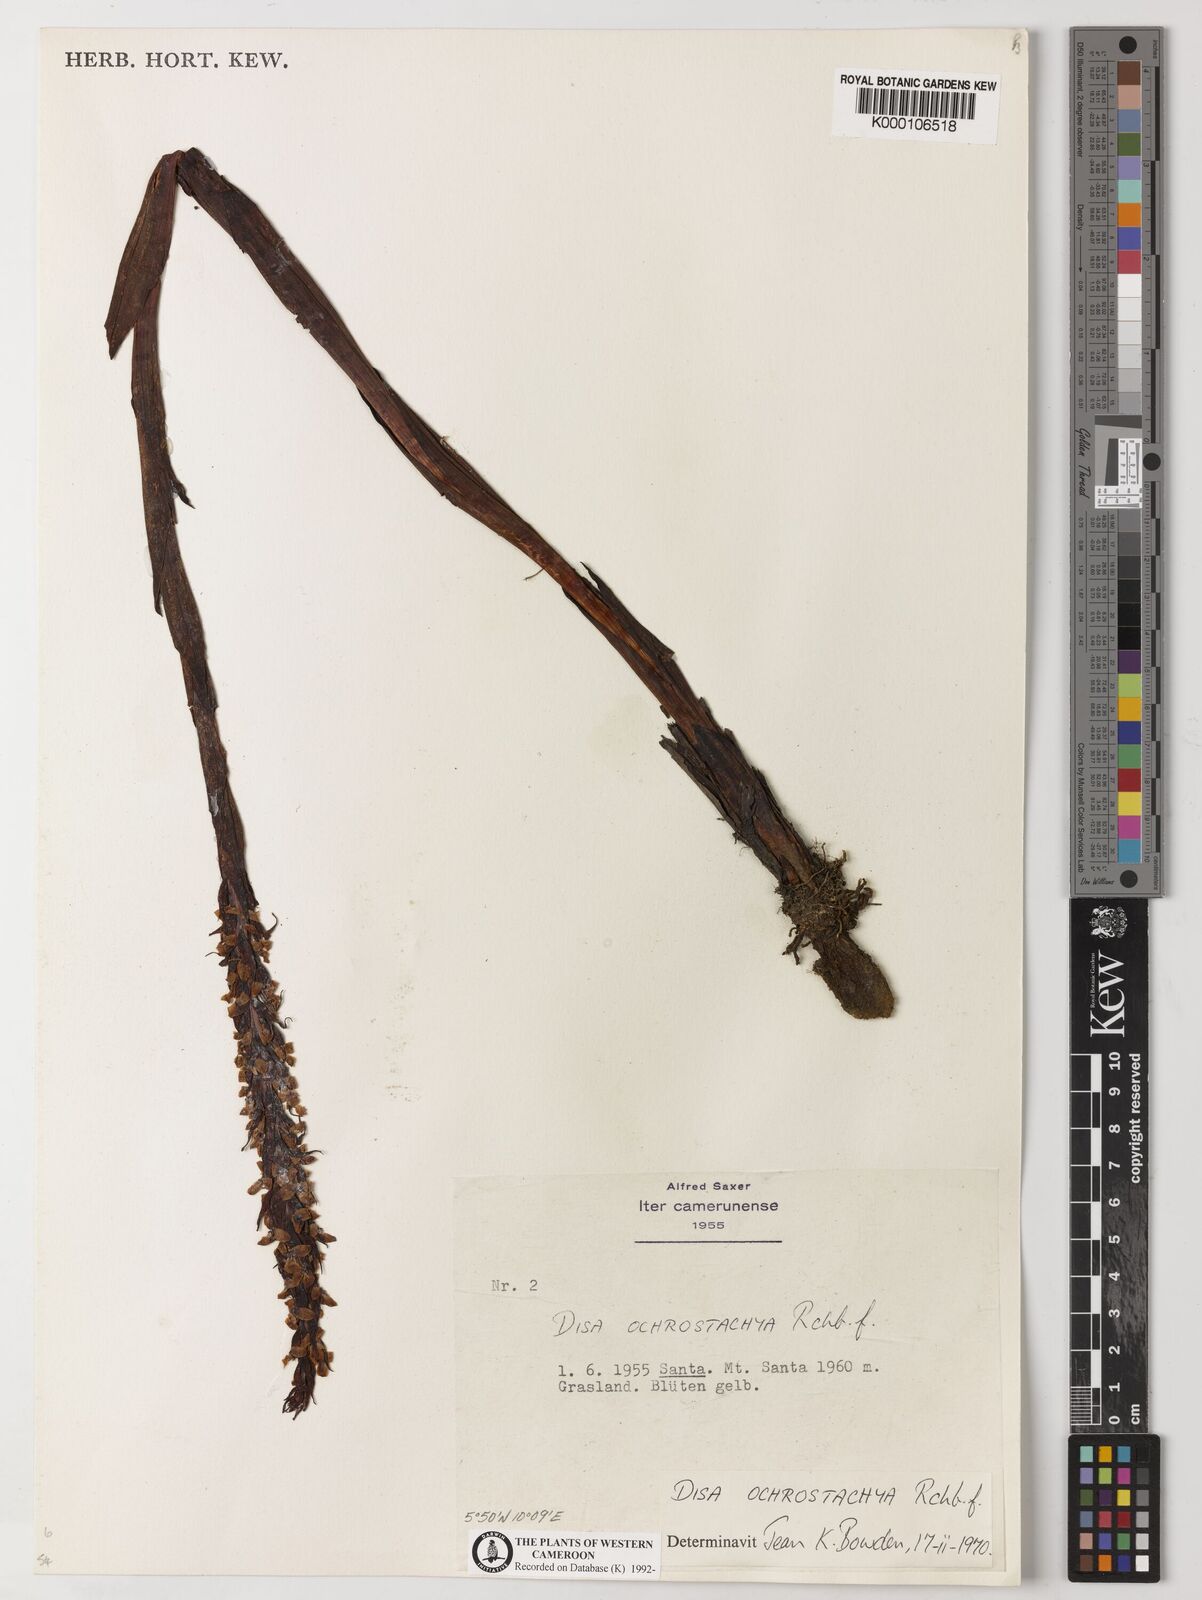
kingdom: Plantae
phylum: Tracheophyta
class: Liliopsida
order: Asparagales
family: Orchidaceae
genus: Disa
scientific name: Disa ochrostachya
